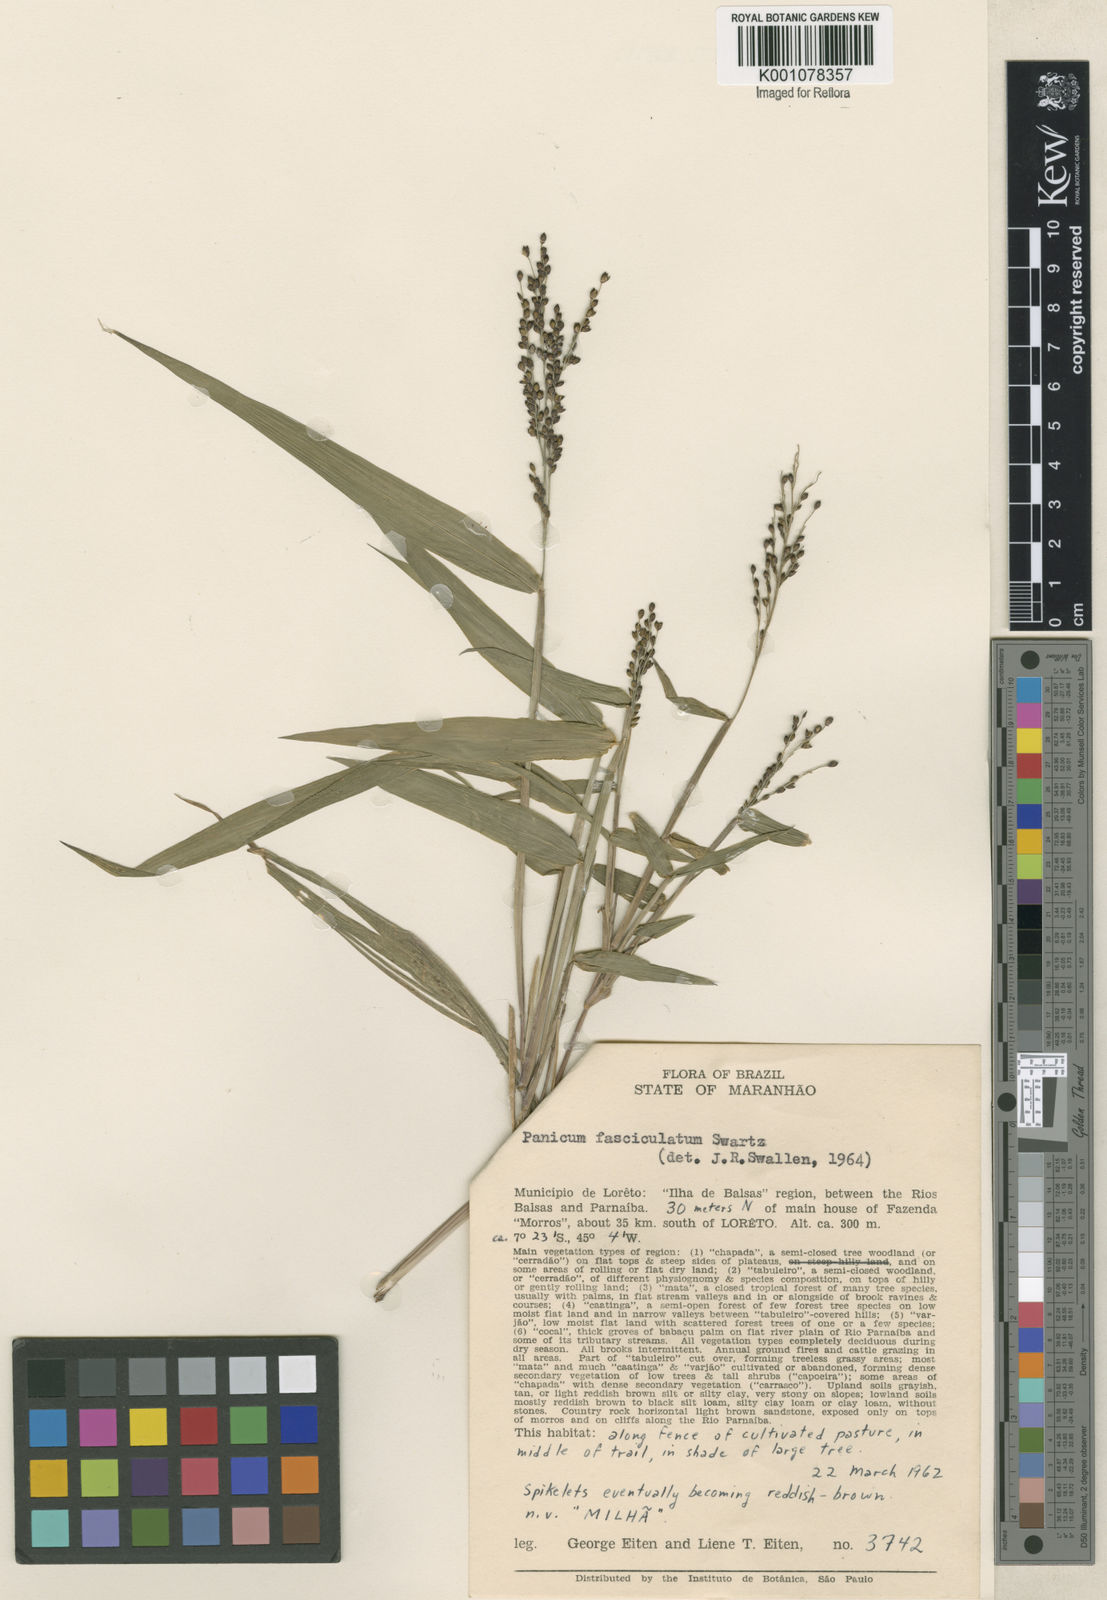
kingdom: Plantae
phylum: Tracheophyta
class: Liliopsida
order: Poales
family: Poaceae
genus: Urochloa
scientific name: Urochloa fusca
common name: Browntop signal grass
